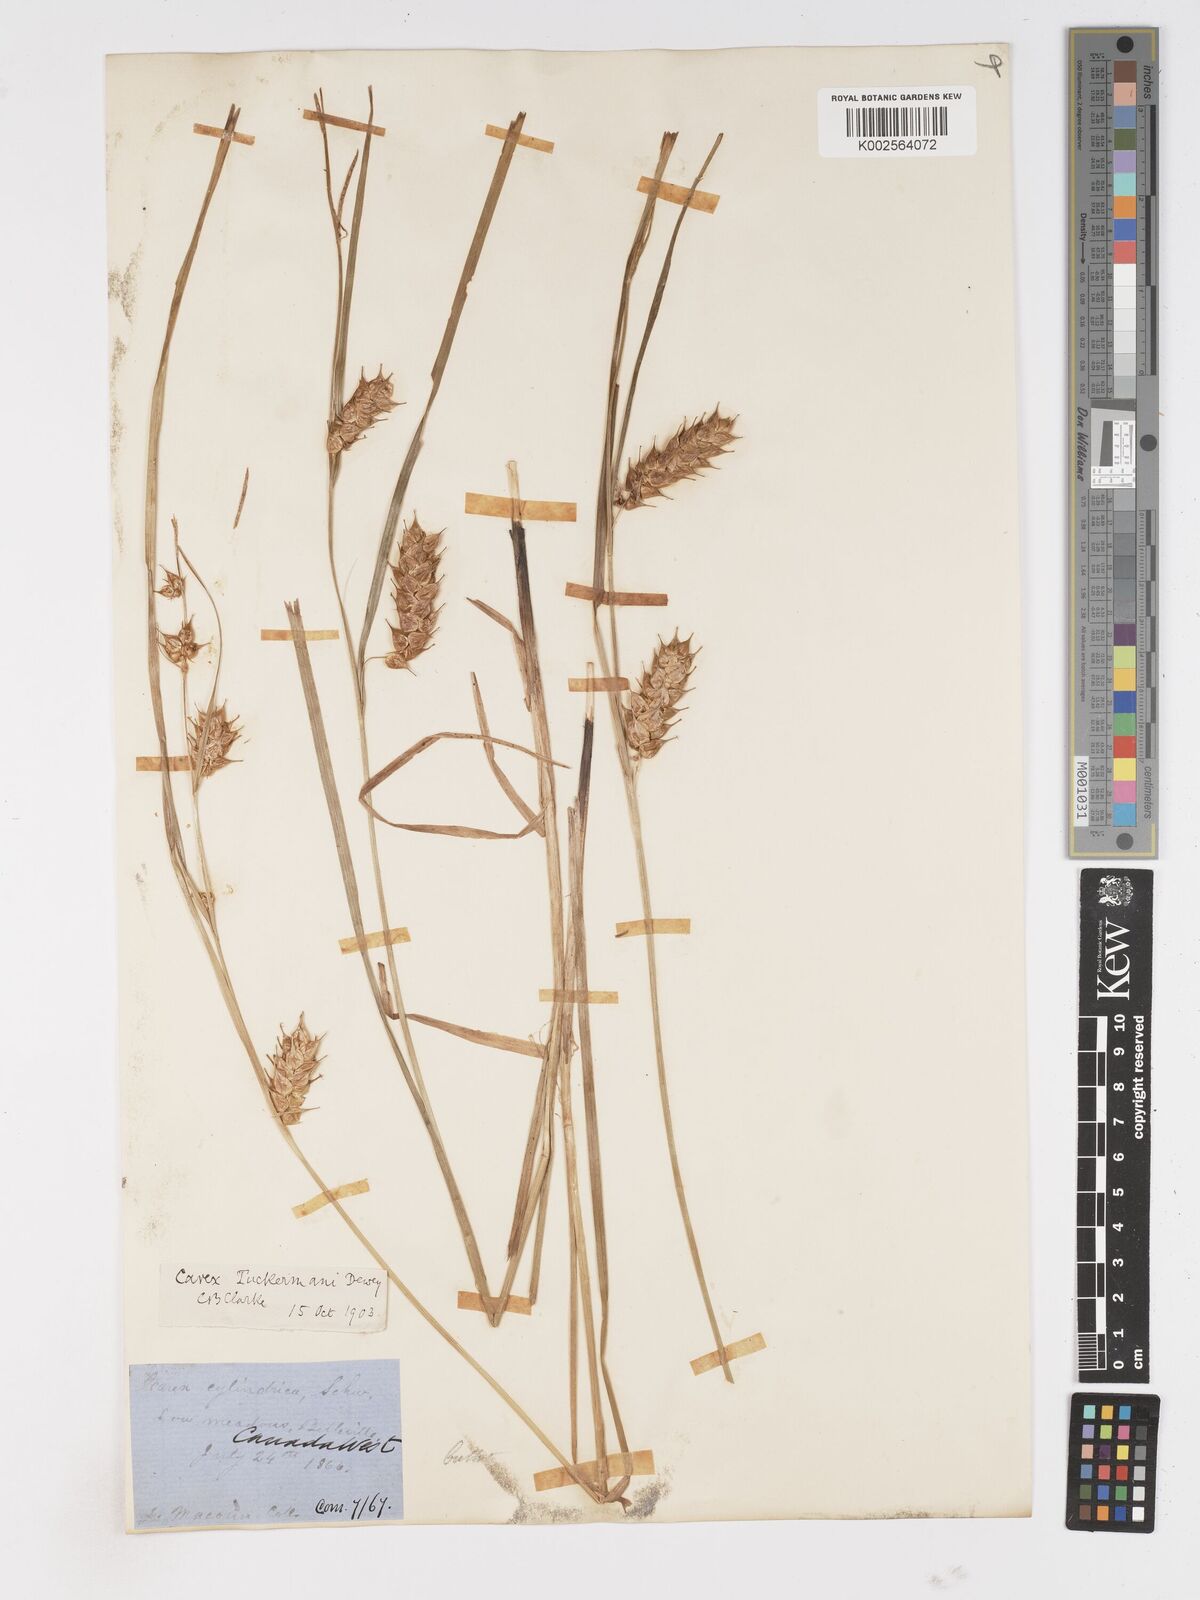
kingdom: Plantae
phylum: Tracheophyta
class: Liliopsida
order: Poales
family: Cyperaceae
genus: Carex
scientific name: Carex tuckermanii
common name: Tuckerman's sedge
